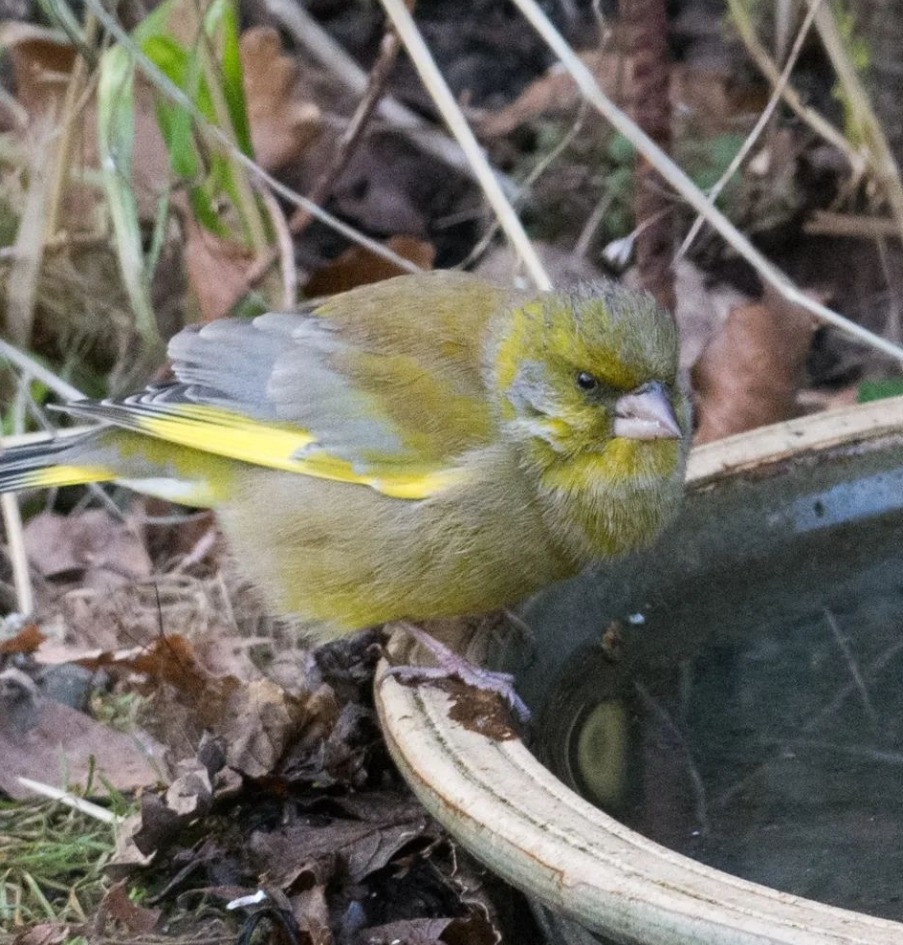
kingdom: Plantae
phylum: Tracheophyta
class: Liliopsida
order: Poales
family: Poaceae
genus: Chloris
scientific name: Chloris chloris
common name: Grønirisk
